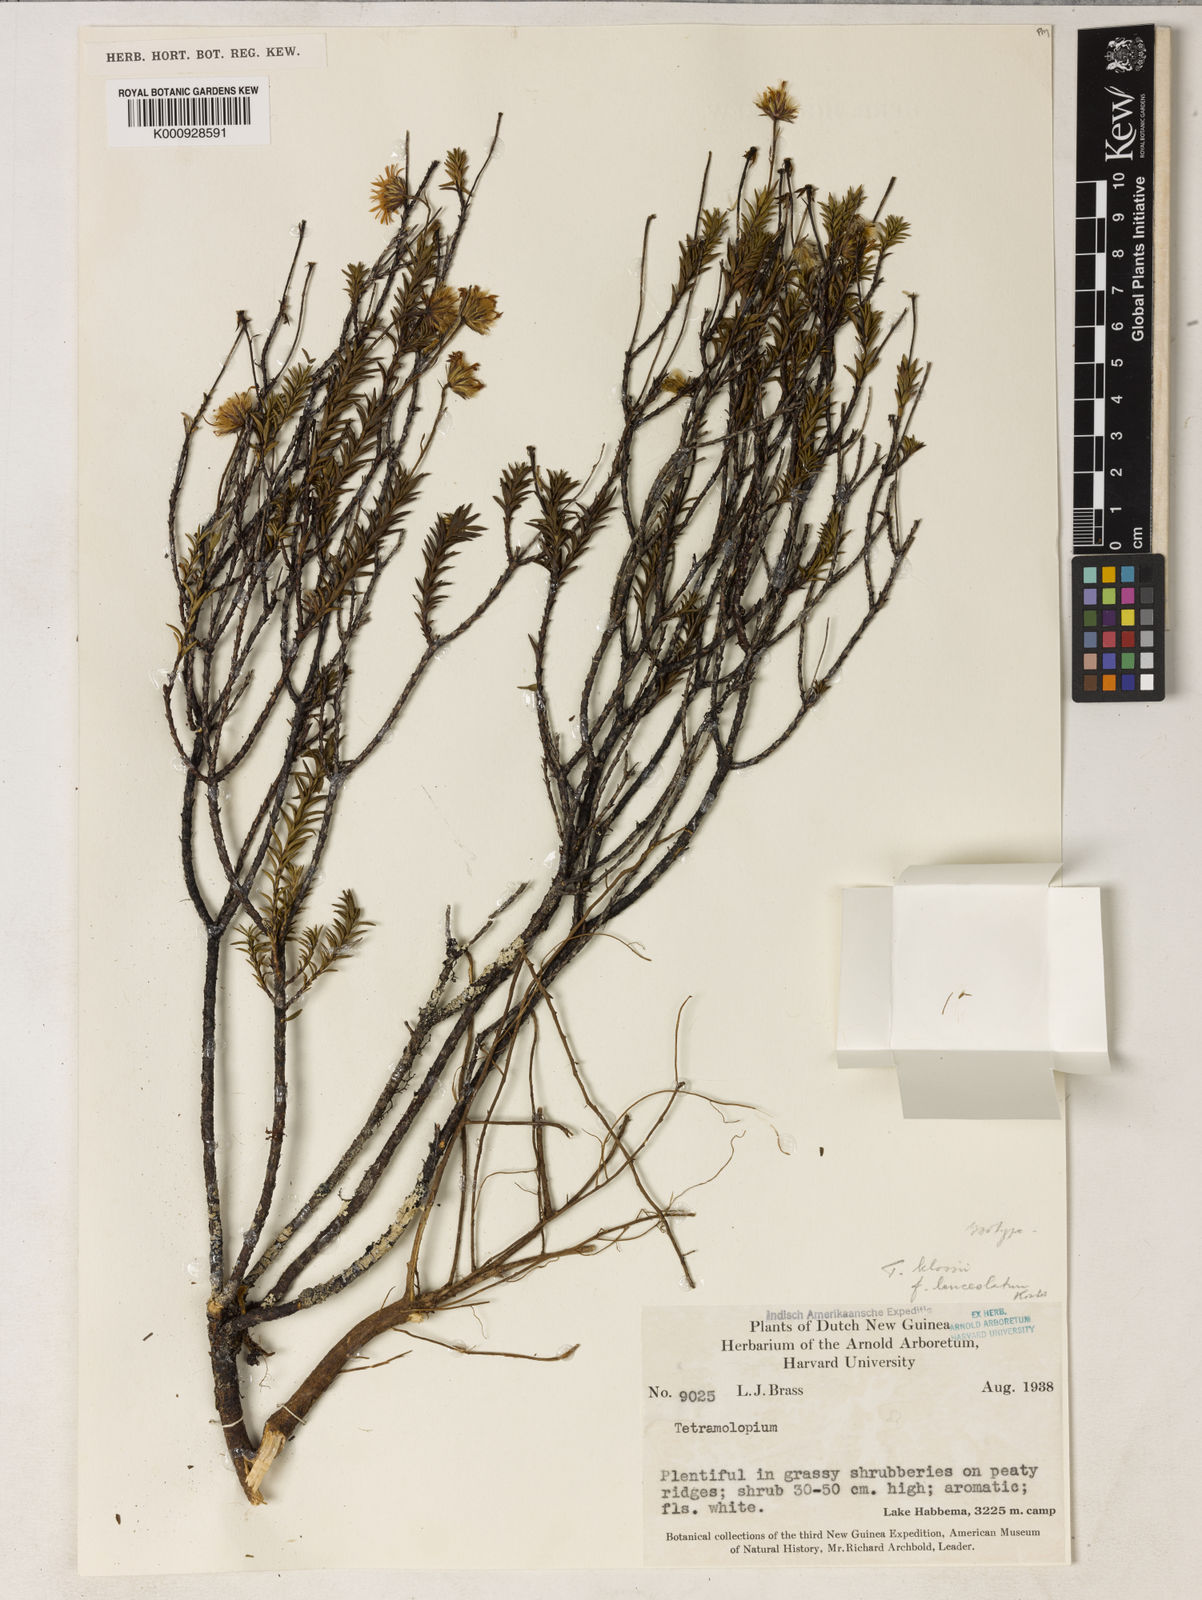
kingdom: Plantae
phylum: Tracheophyta
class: Magnoliopsida
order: Asterales
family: Asteraceae
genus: Tetramolopium
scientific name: Tetramolopium klossii
